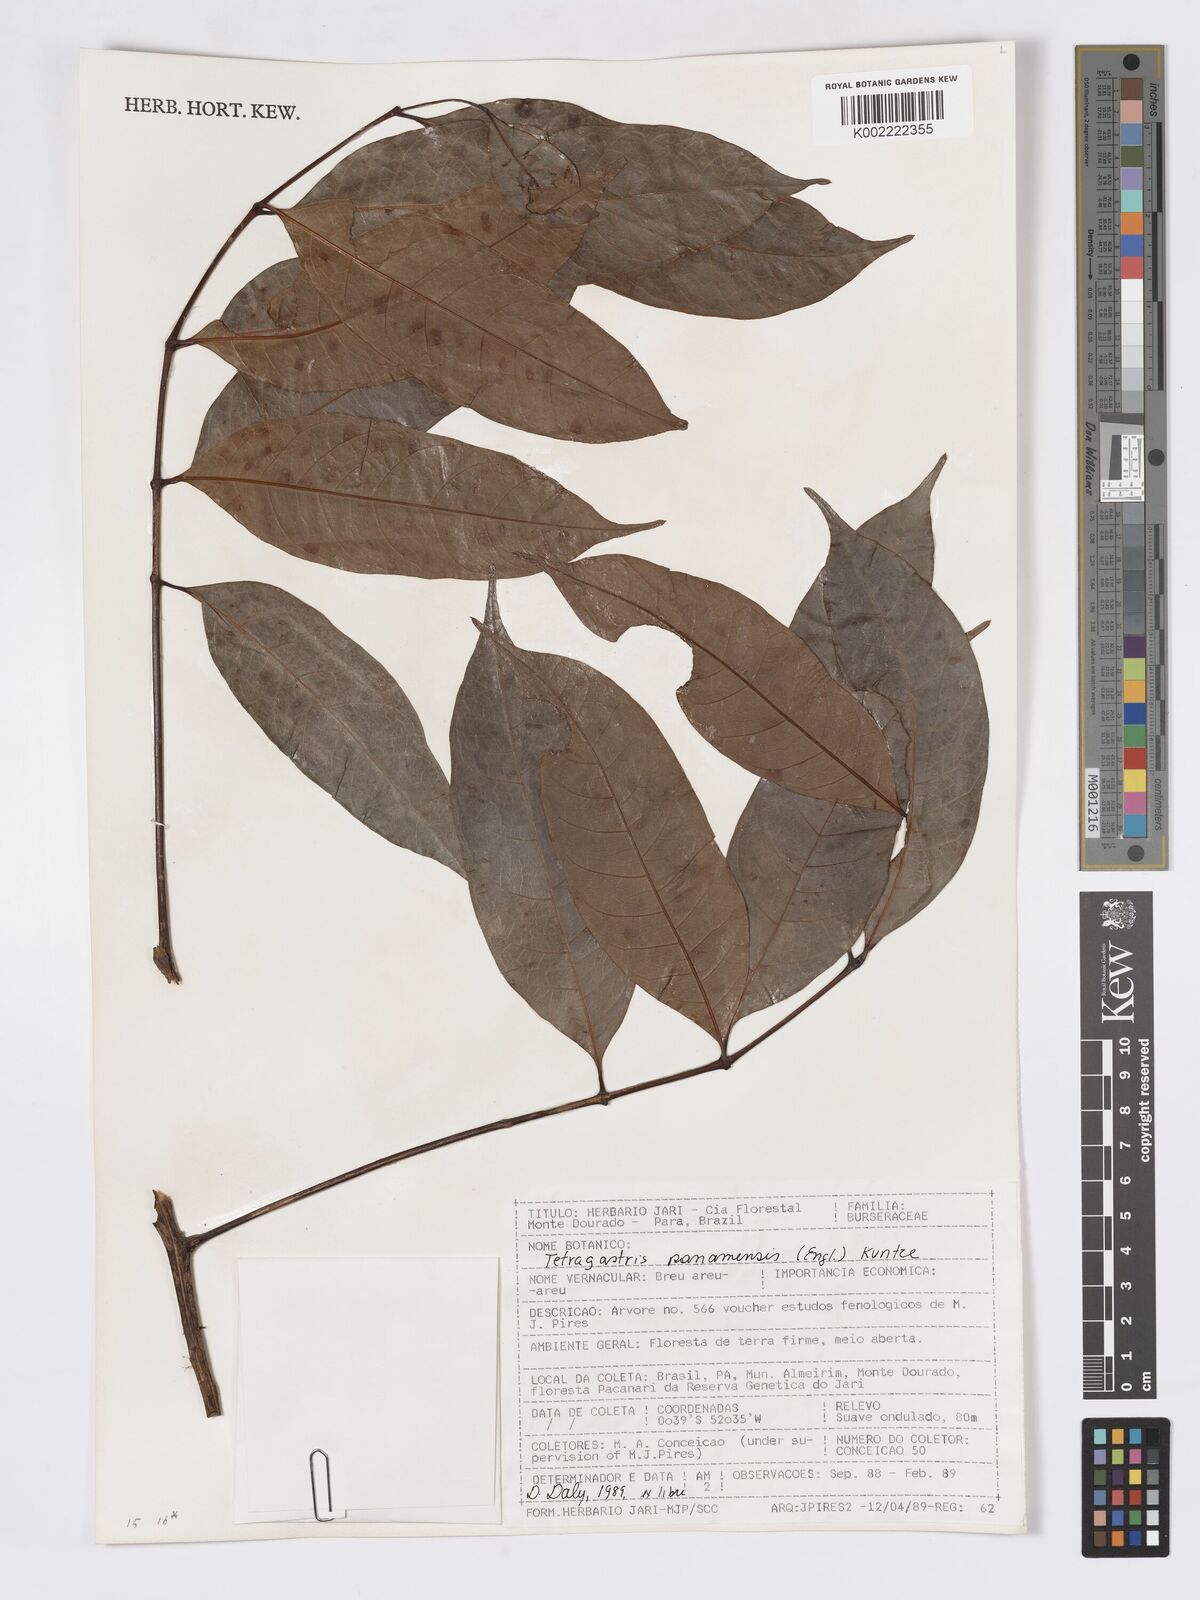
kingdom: Plantae
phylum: Tracheophyta
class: Magnoliopsida
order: Sapindales
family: Burseraceae
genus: Tetragastris
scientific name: Tetragastris panamensis
